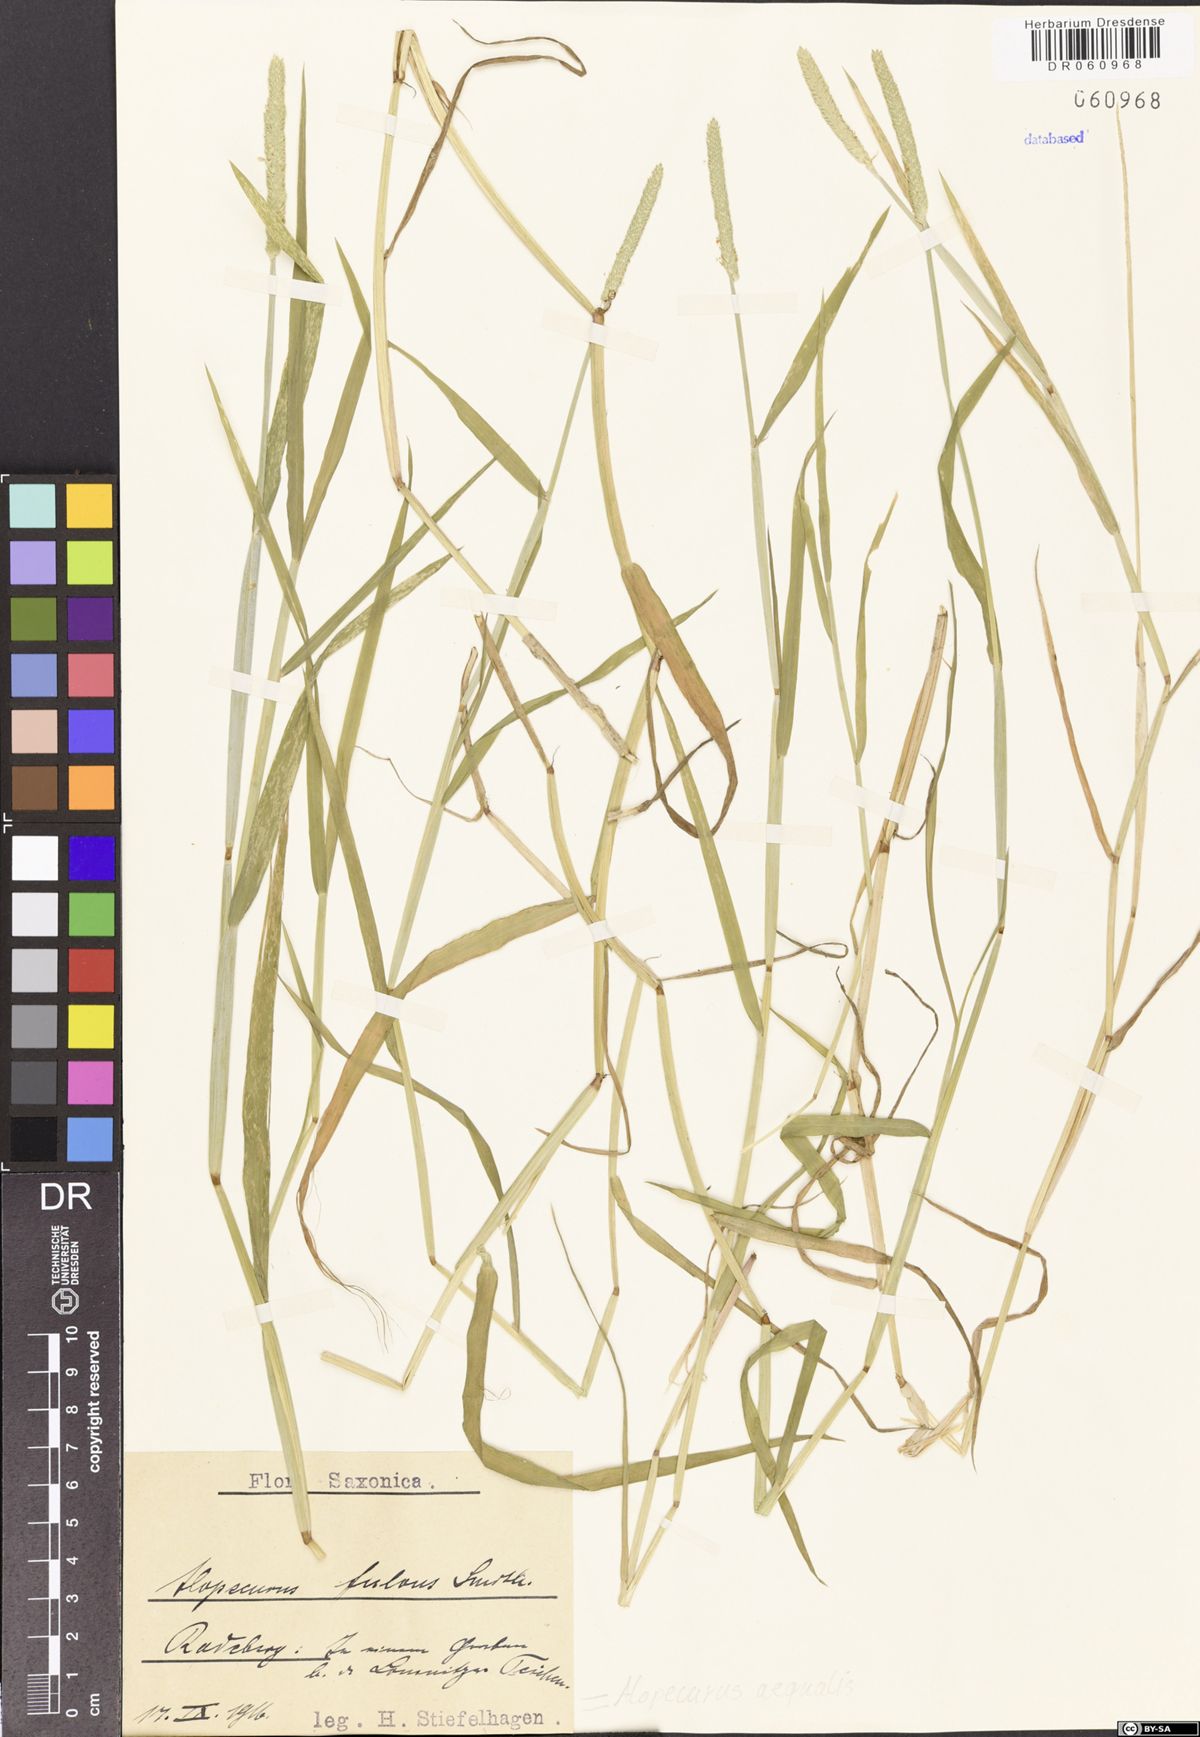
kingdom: Plantae
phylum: Tracheophyta
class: Liliopsida
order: Poales
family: Poaceae
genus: Alopecurus
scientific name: Alopecurus aequalis
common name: Orange foxtail
